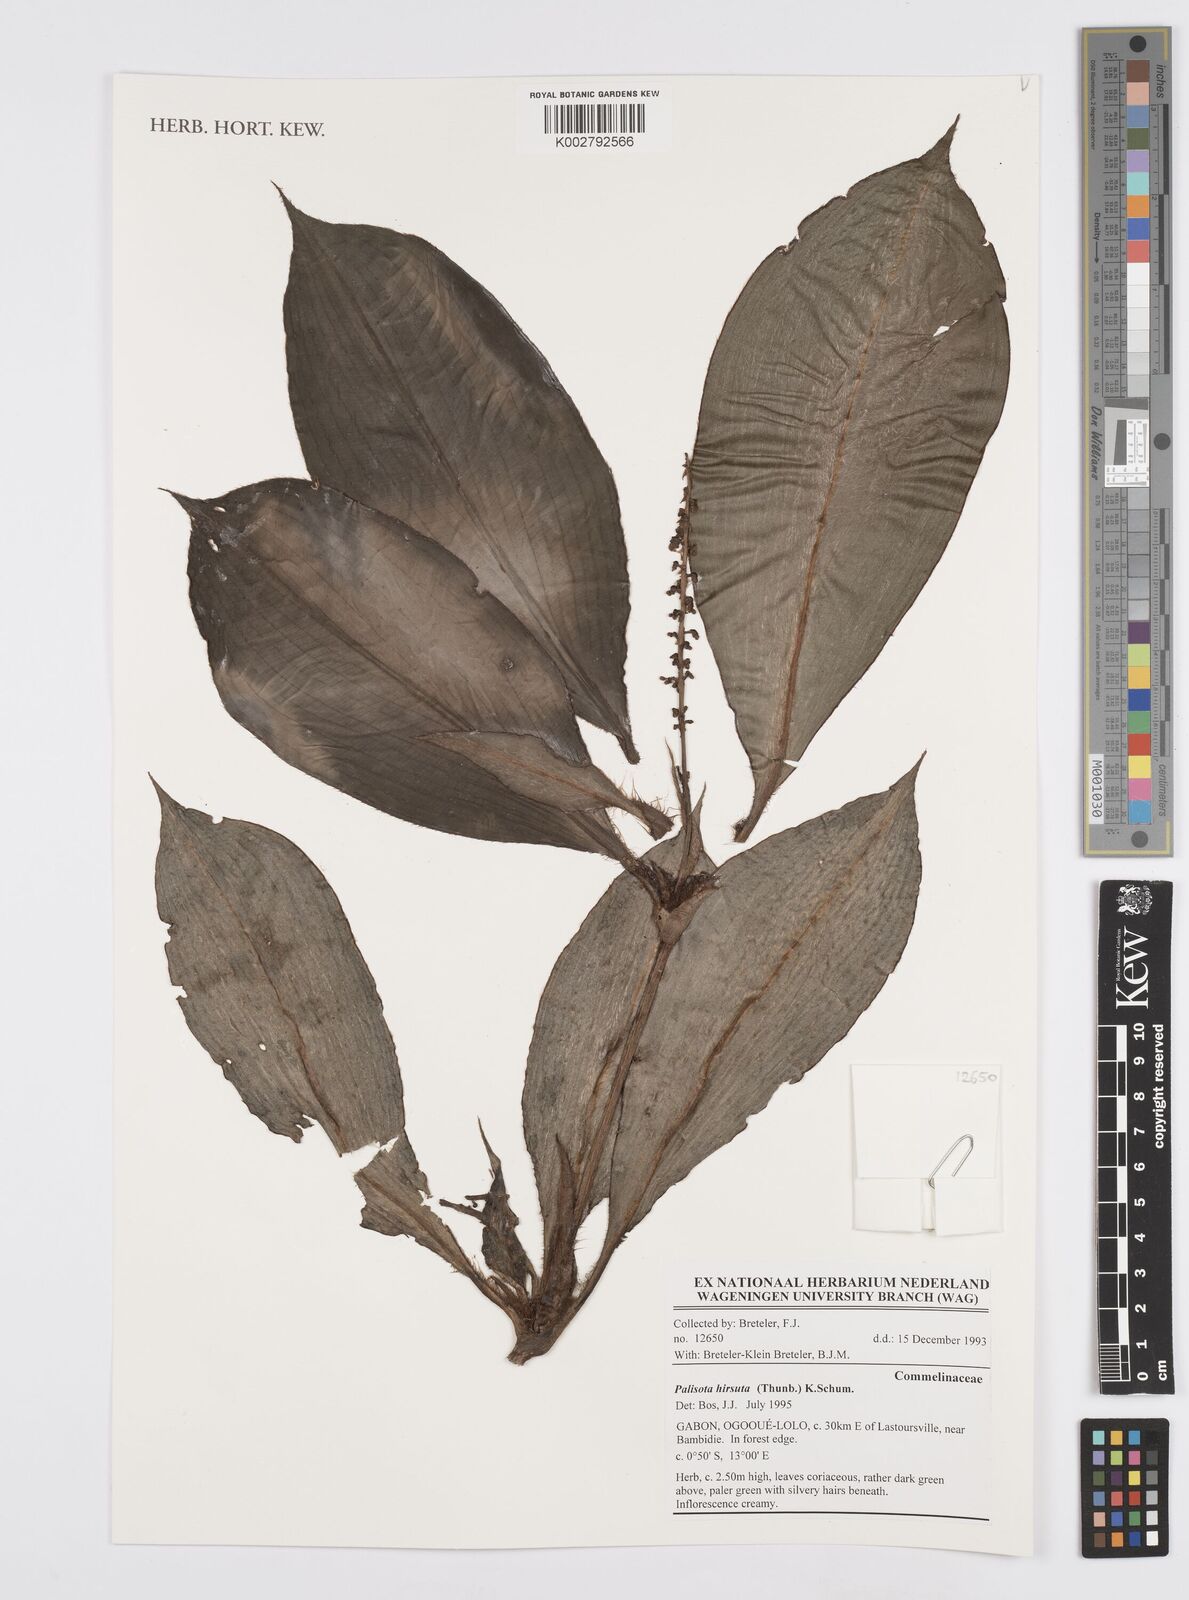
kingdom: Plantae
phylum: Tracheophyta
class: Liliopsida
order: Commelinales
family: Commelinaceae
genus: Palisota
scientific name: Palisota hirsuta
